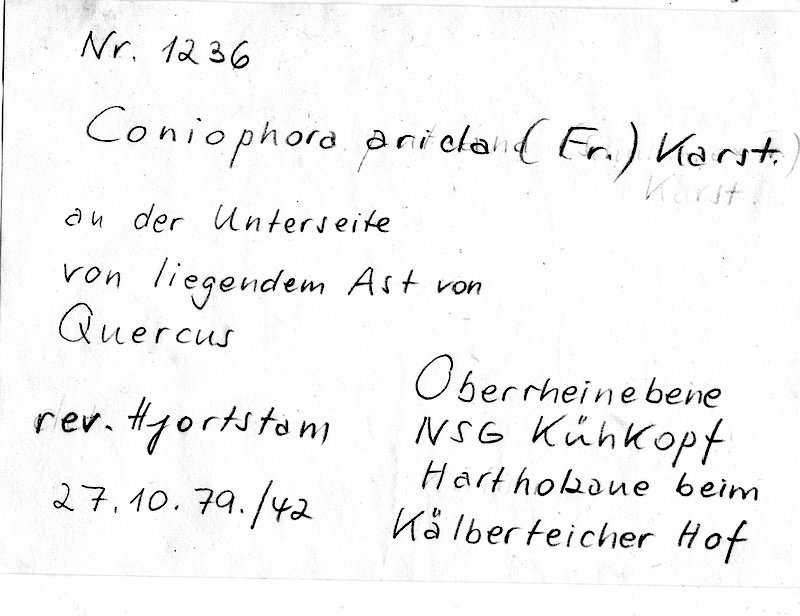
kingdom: Plantae
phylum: Tracheophyta
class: Magnoliopsida
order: Fagales
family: Fagaceae
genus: Quercus
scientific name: Quercus
